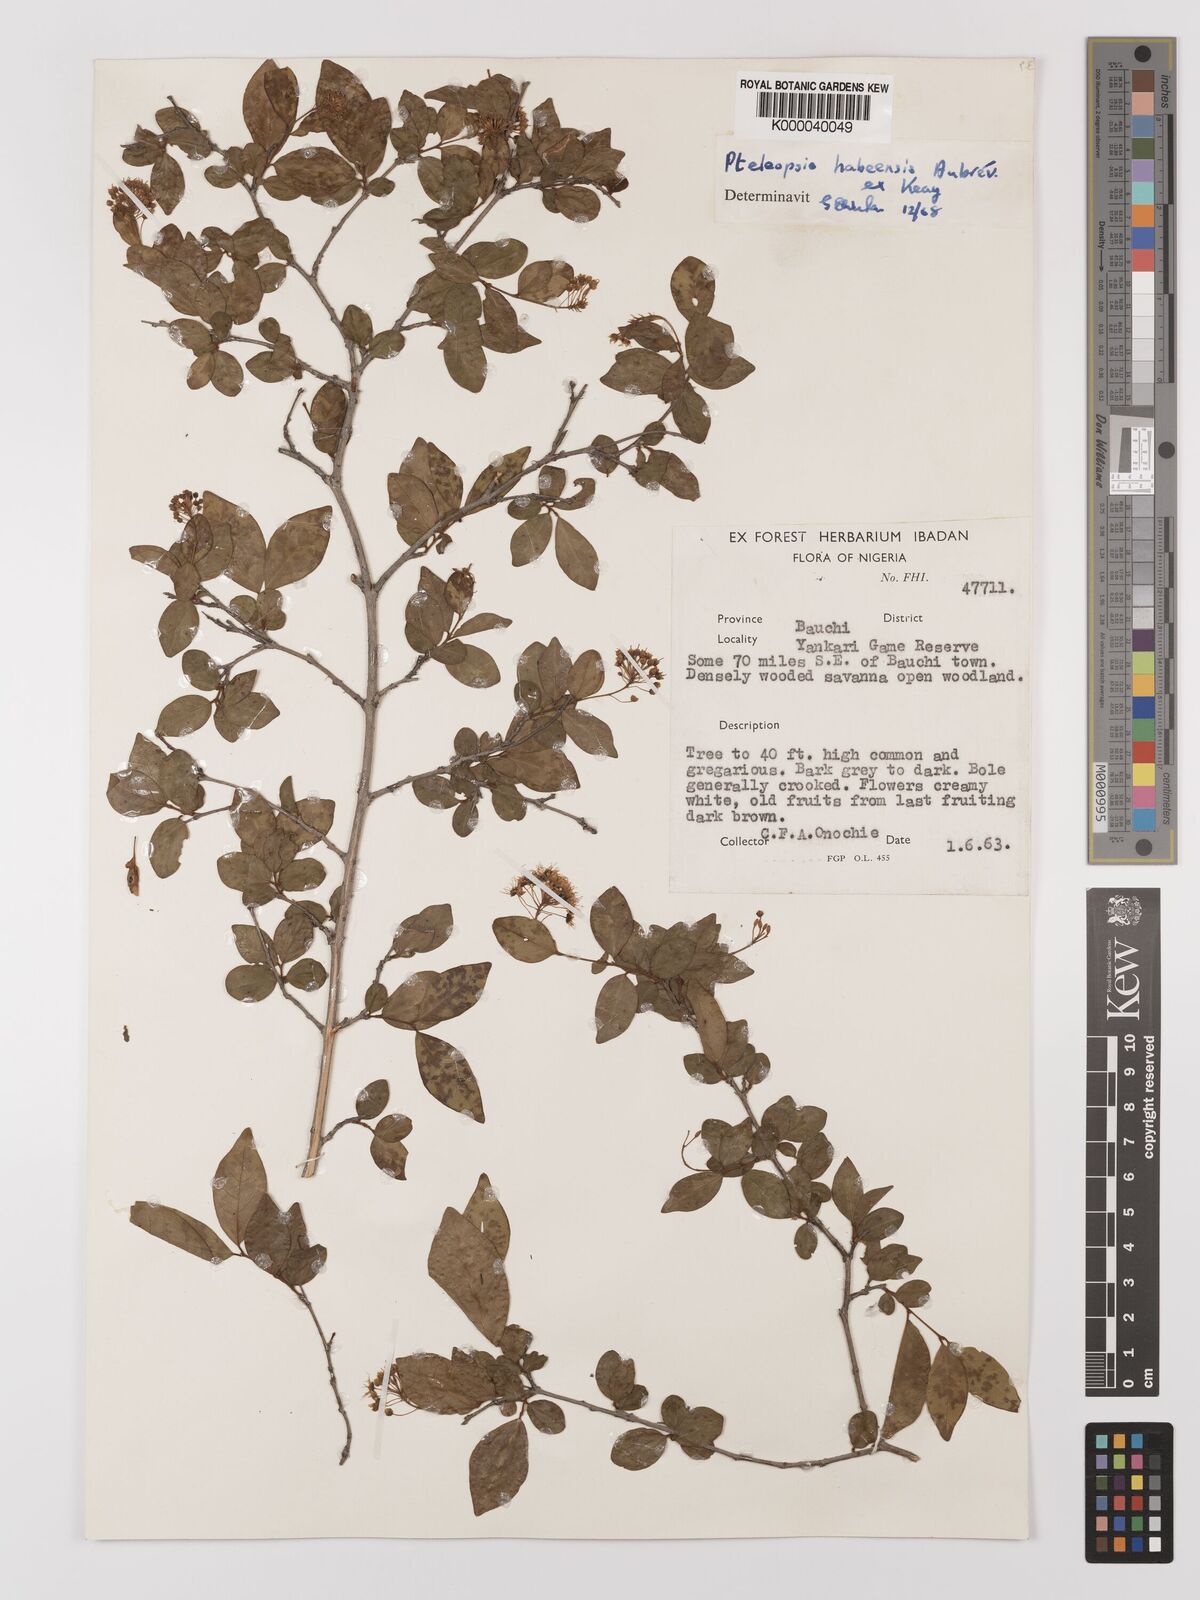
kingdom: Plantae
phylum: Tracheophyta
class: Magnoliopsida
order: Myrtales
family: Combretaceae
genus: Terminalia
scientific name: Terminalia
